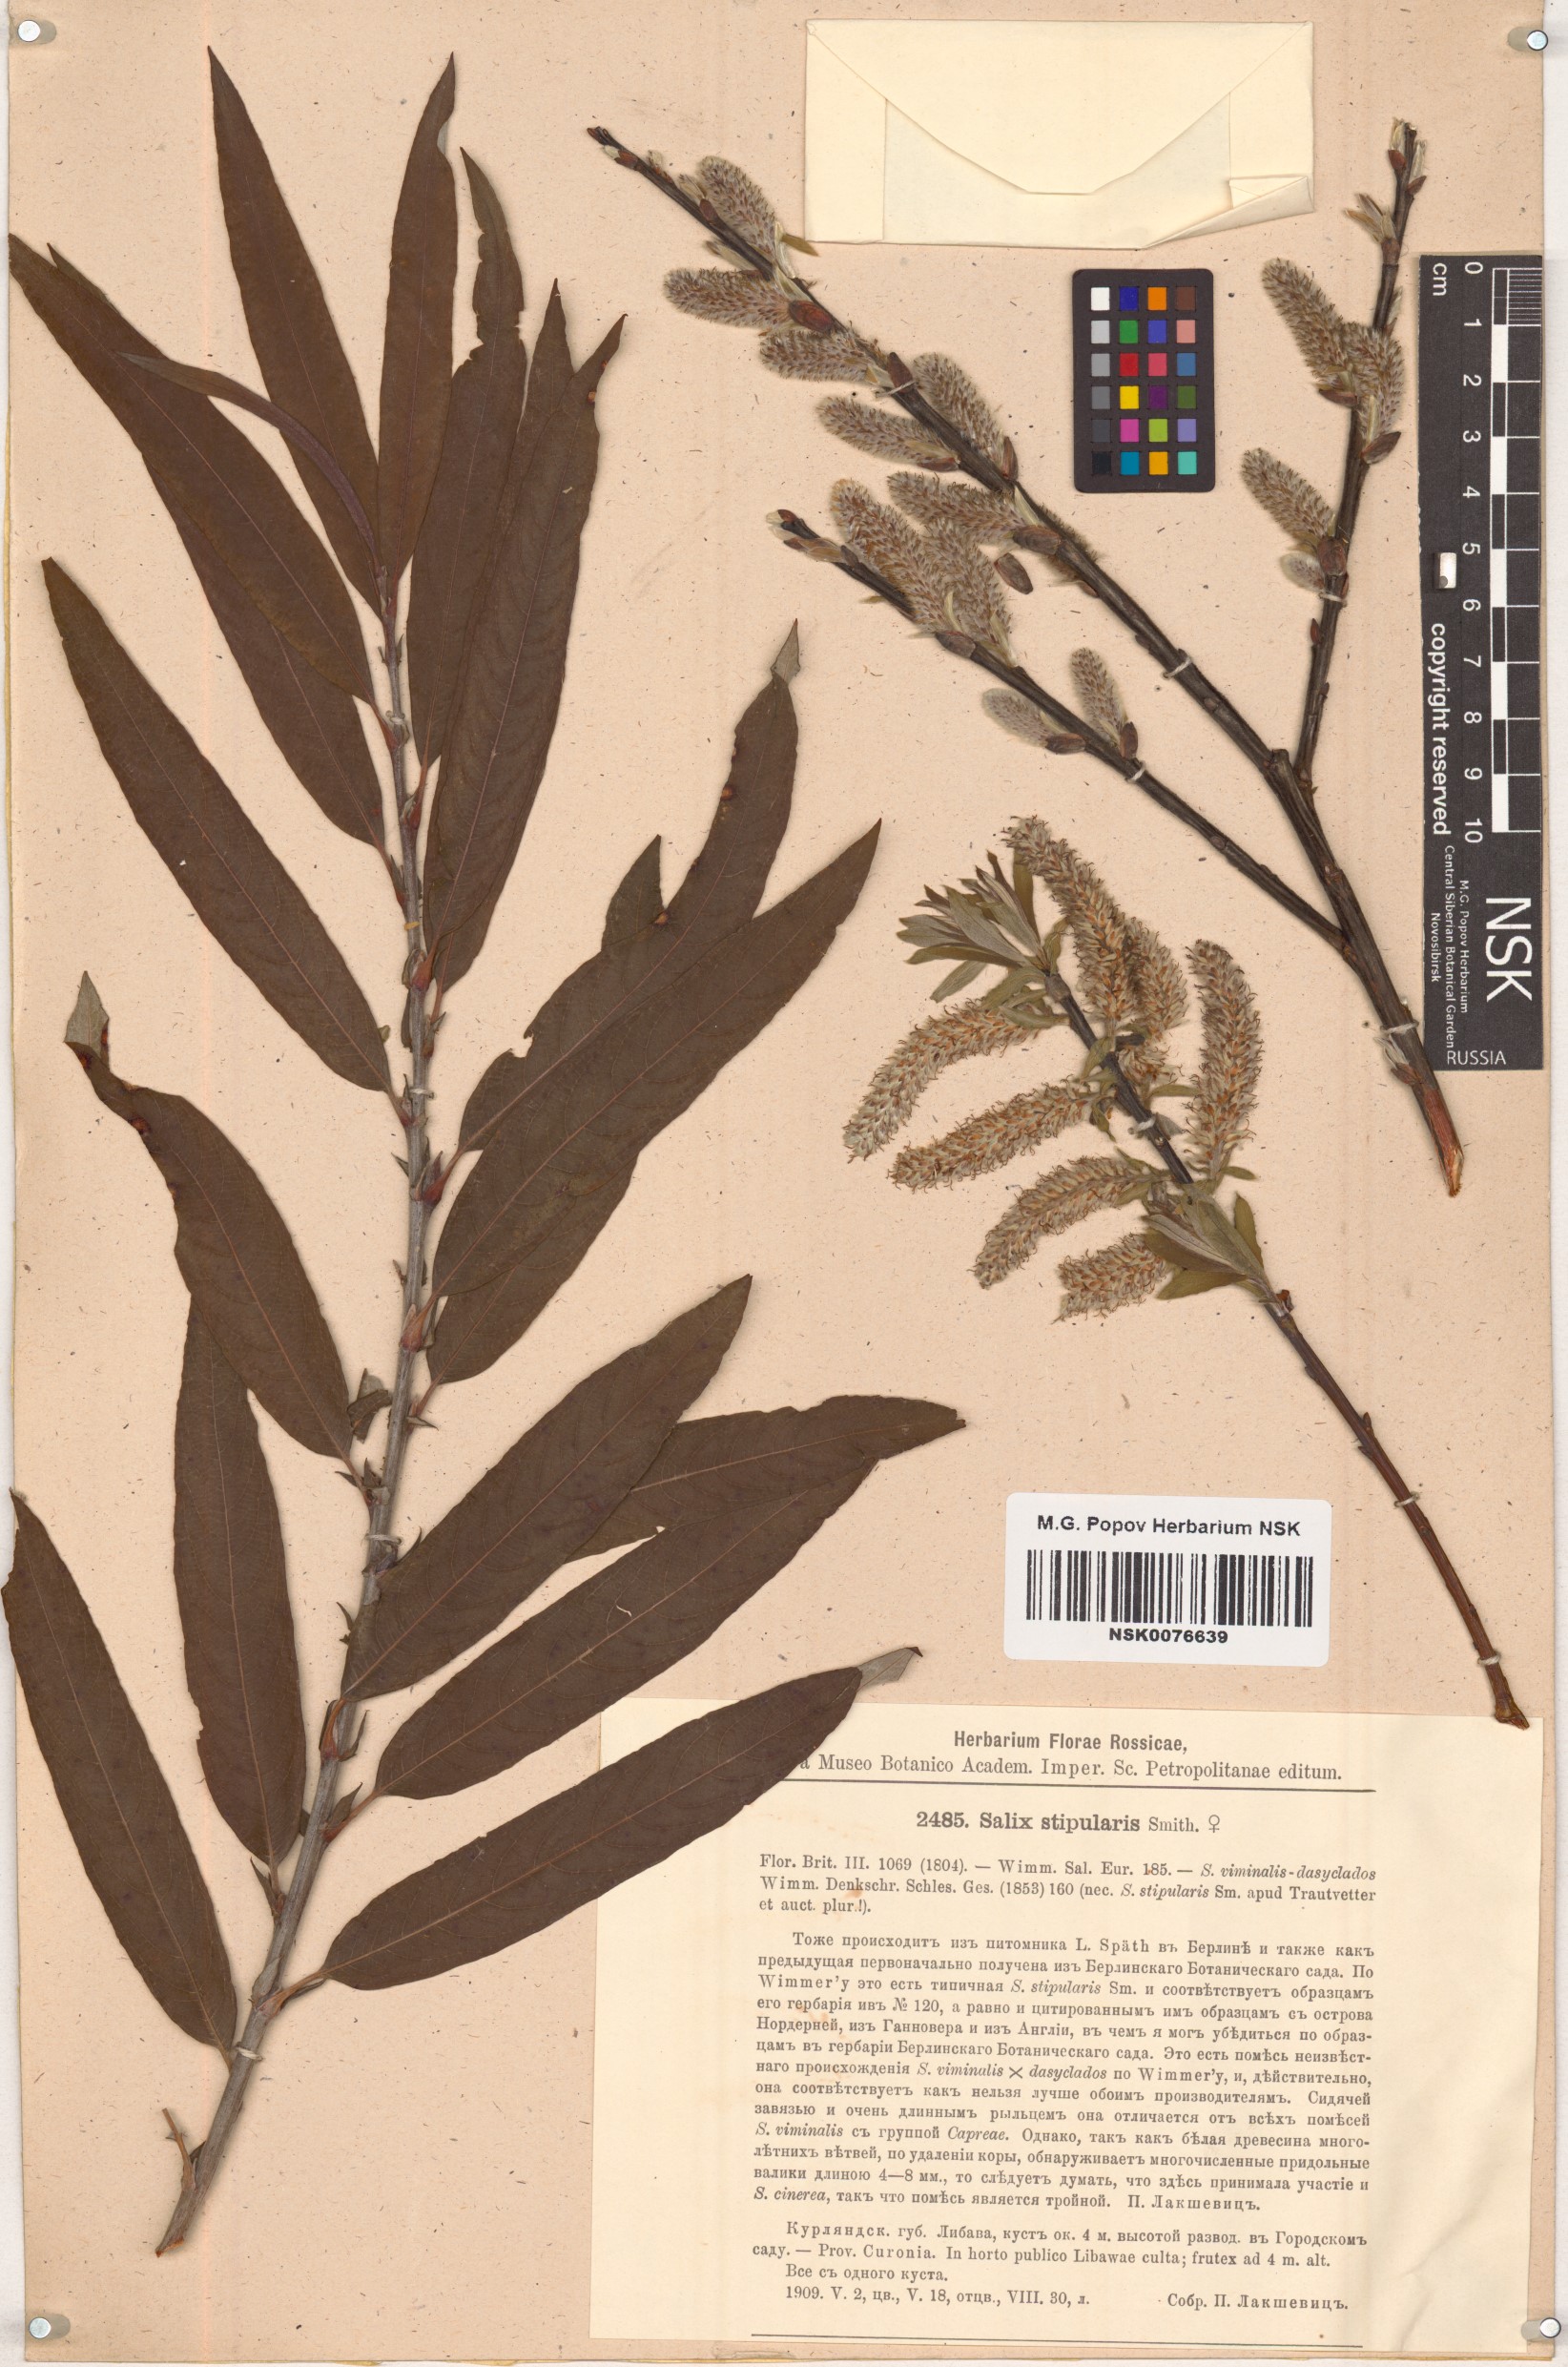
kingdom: Plantae
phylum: Tracheophyta
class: Magnoliopsida
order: Malpighiales
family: Salicaceae
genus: Salix
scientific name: Salix stipularis
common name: Eared osier
